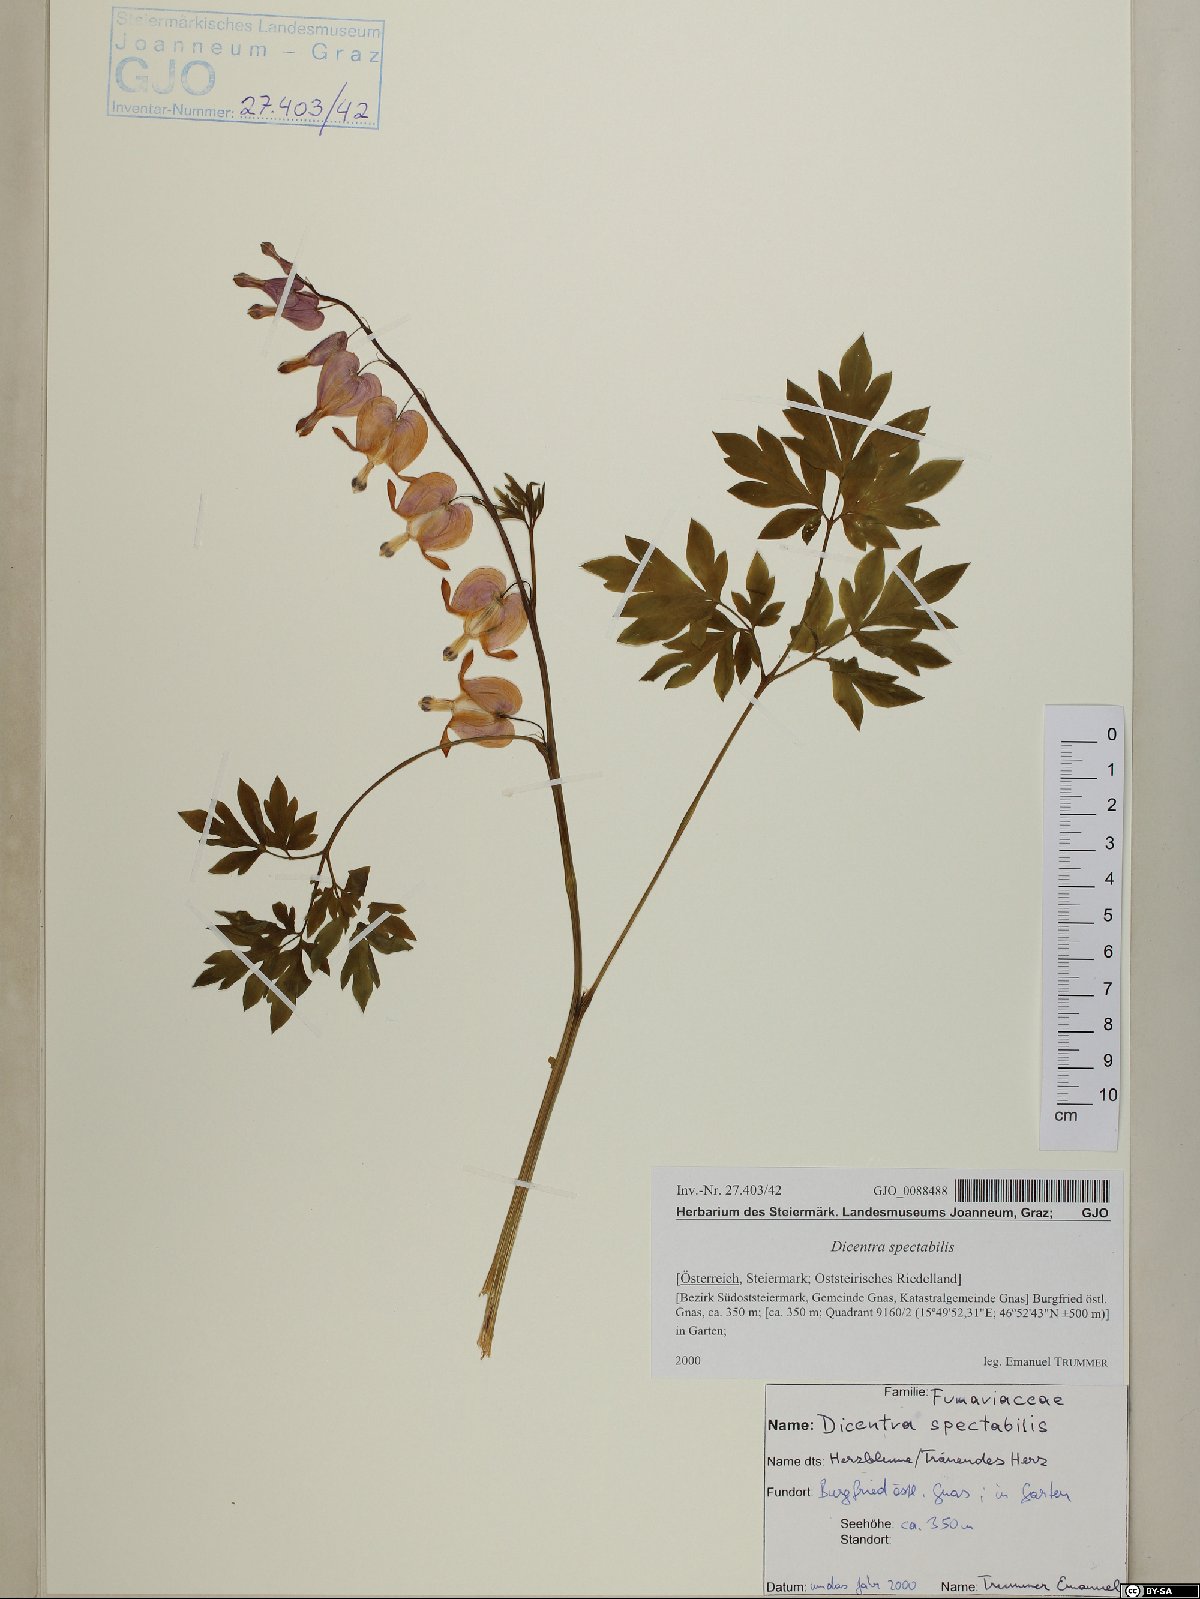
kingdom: Plantae
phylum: Tracheophyta
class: Magnoliopsida
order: Ranunculales
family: Papaveraceae
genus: Lamprocapnos
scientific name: Lamprocapnos spectabilis
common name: Asian bleeding-heart
